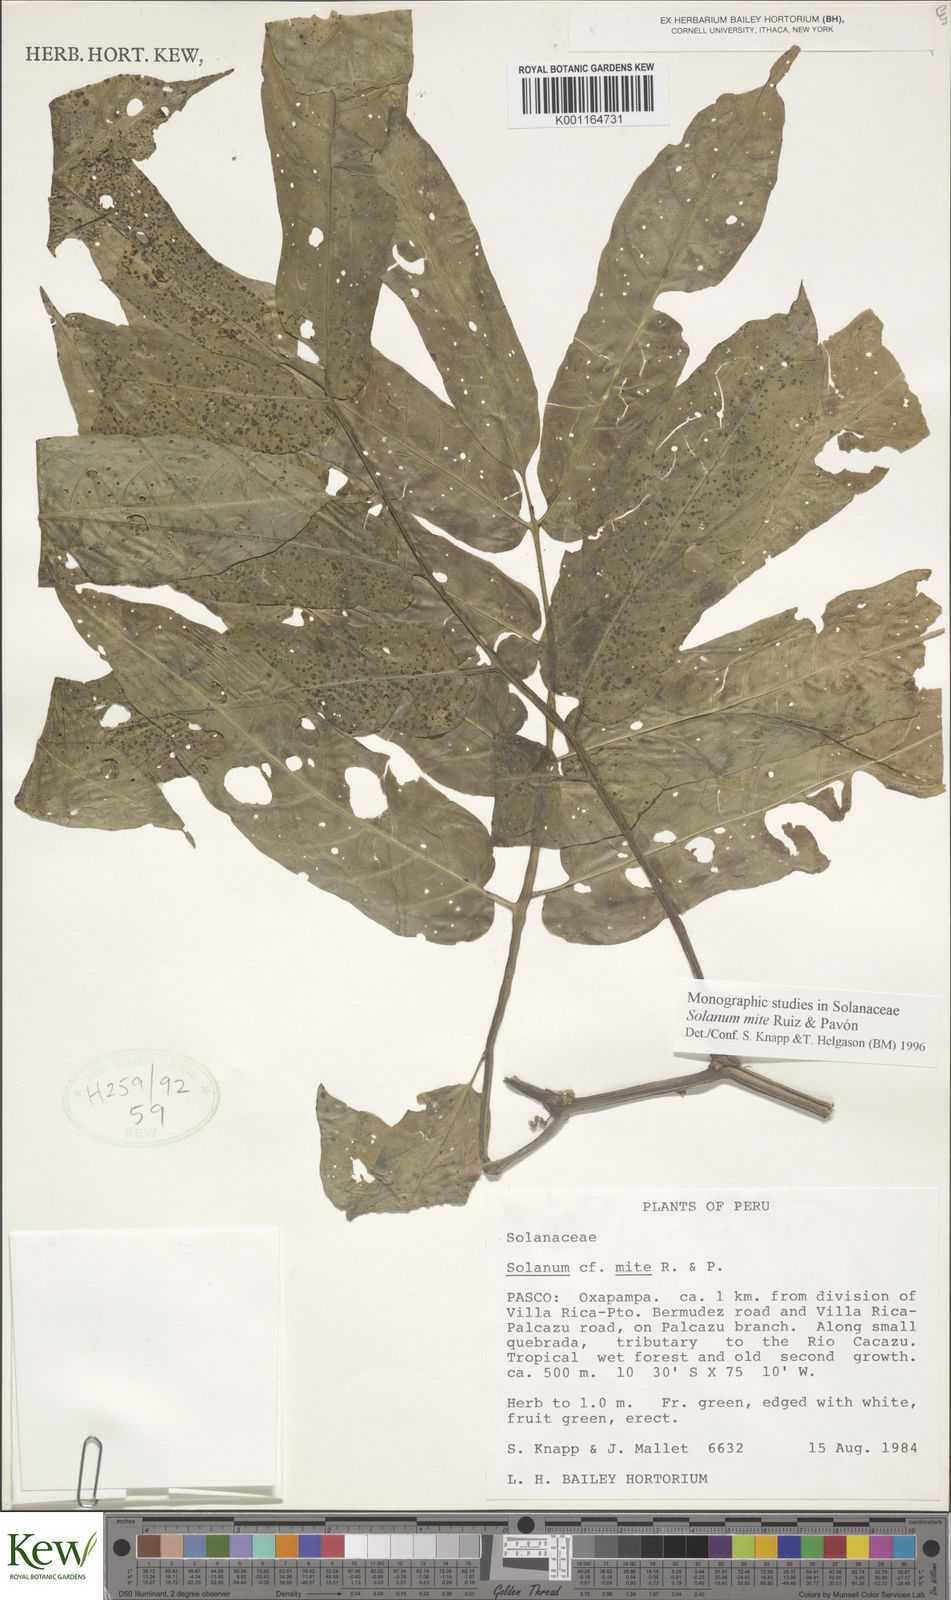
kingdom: Plantae
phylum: Tracheophyta
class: Magnoliopsida
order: Solanales
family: Solanaceae
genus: Solanum
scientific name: Solanum mite
